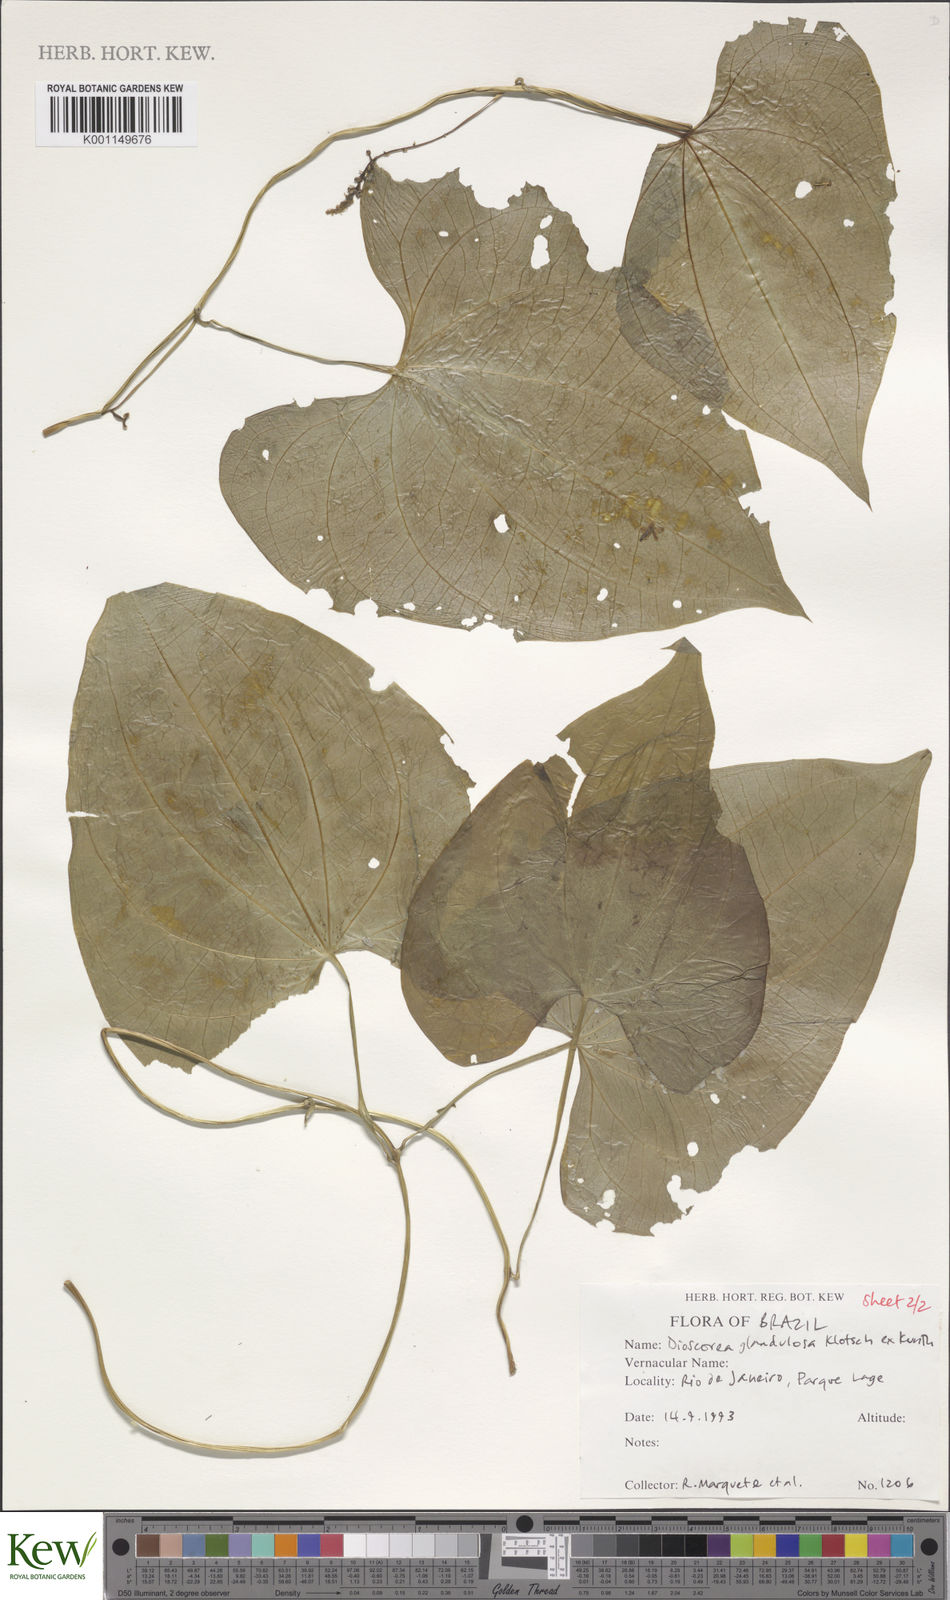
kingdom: Plantae
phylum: Tracheophyta
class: Liliopsida
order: Dioscoreales
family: Dioscoreaceae
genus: Dioscorea
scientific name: Dioscorea glandulosa
